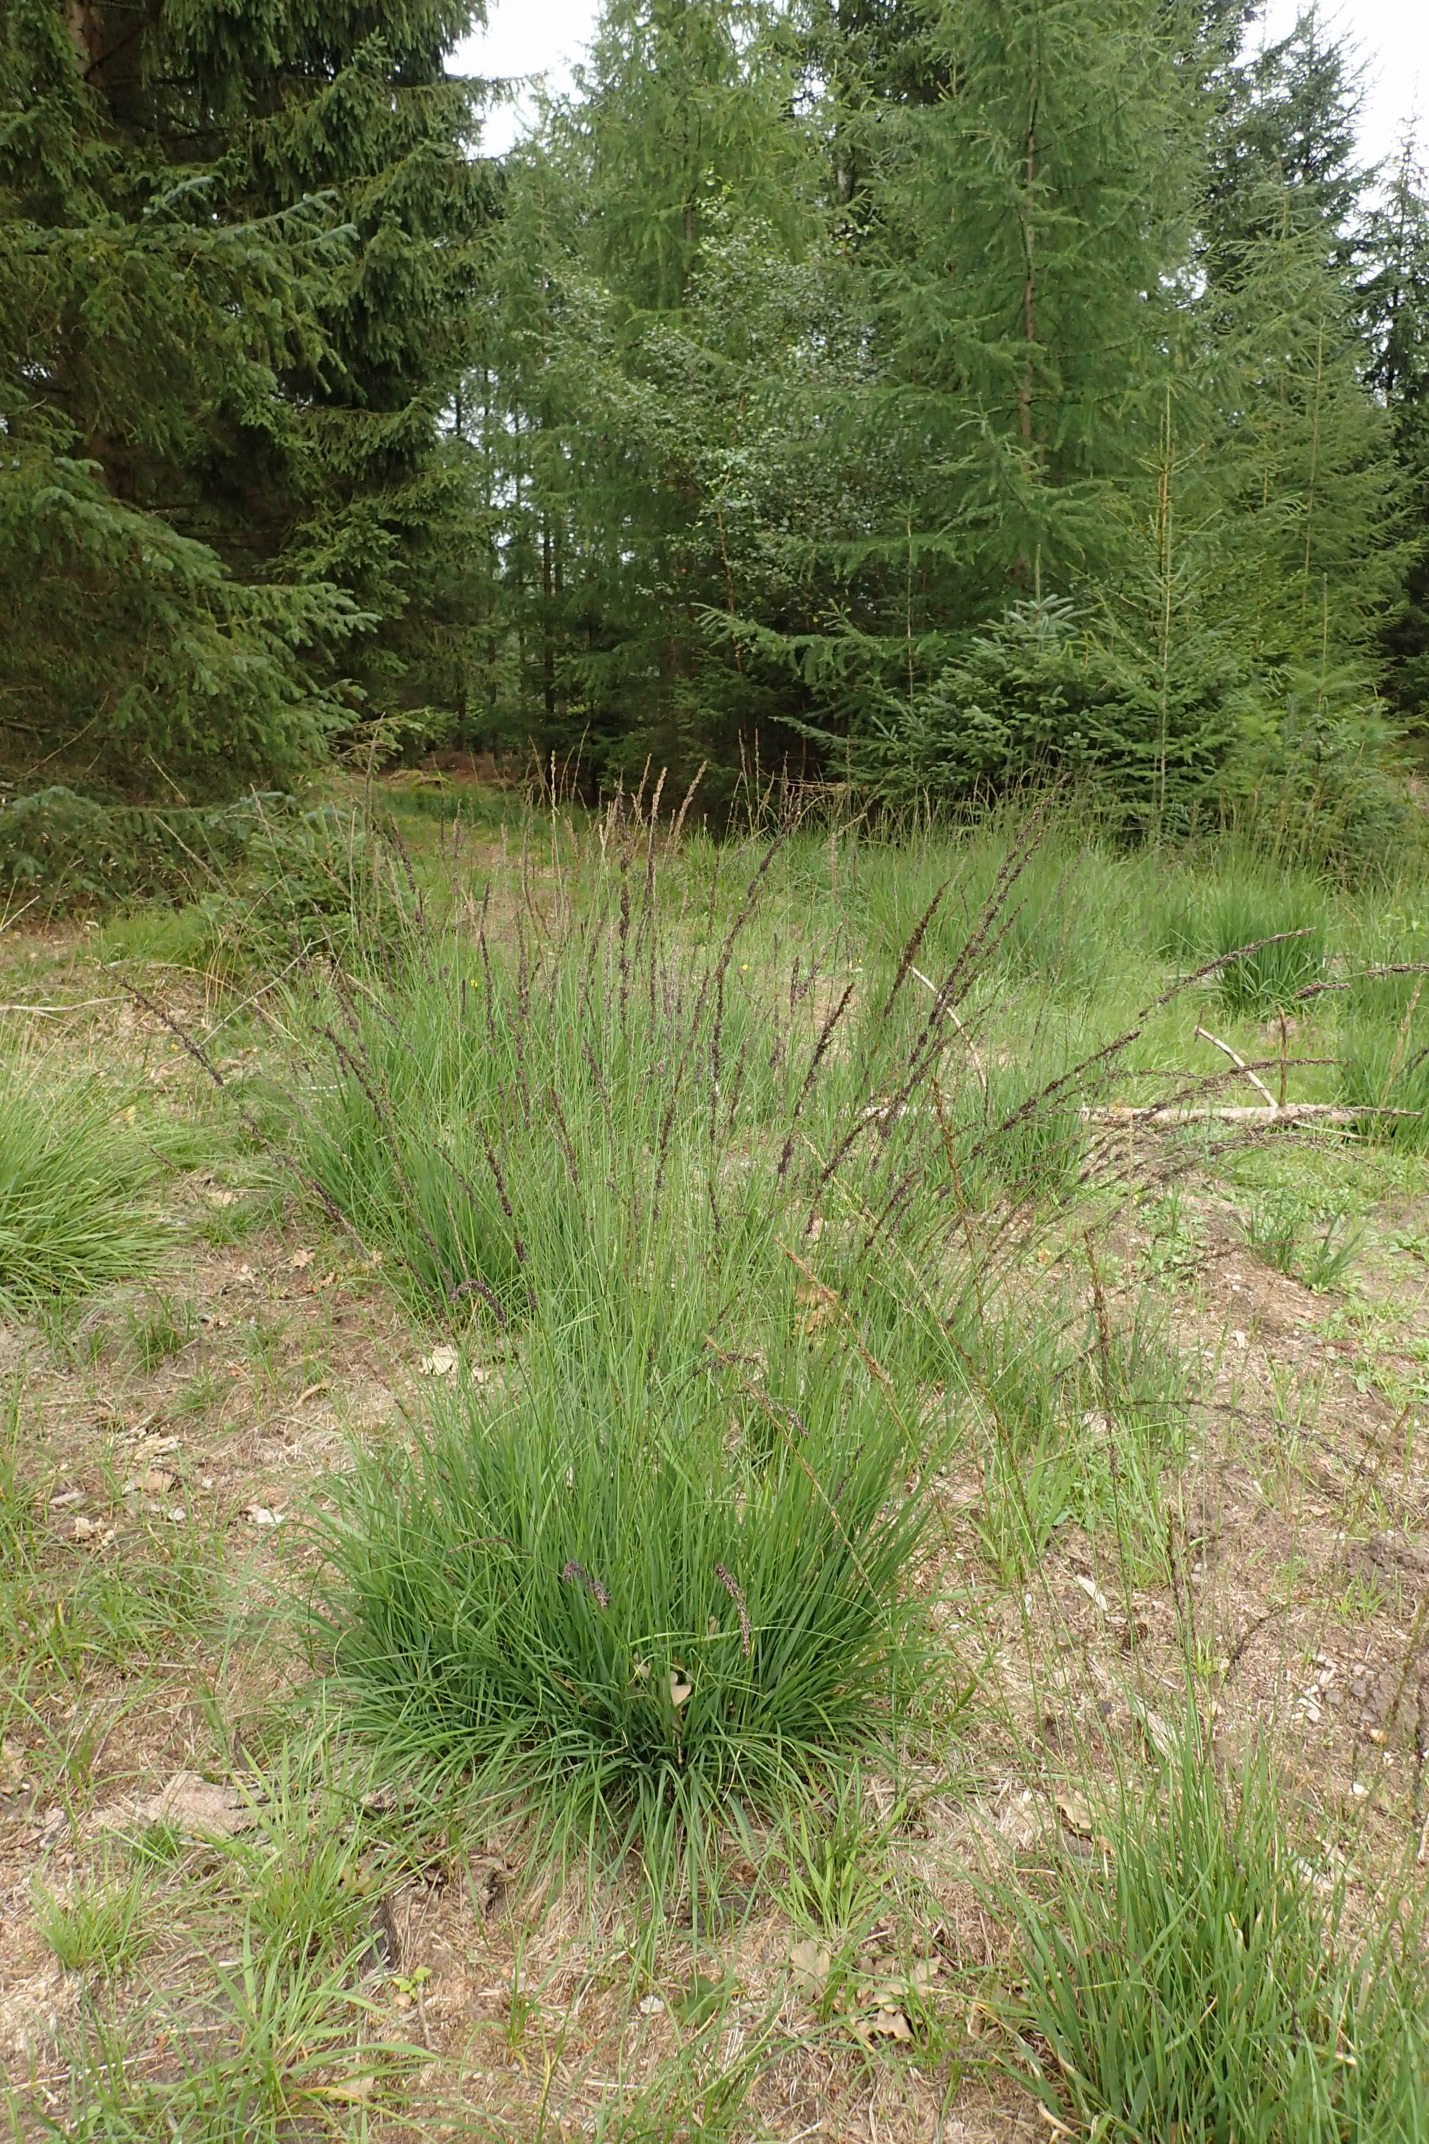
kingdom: Plantae
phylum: Tracheophyta
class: Liliopsida
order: Poales
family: Poaceae
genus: Molinia
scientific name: Molinia caerulea
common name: Blåtop
